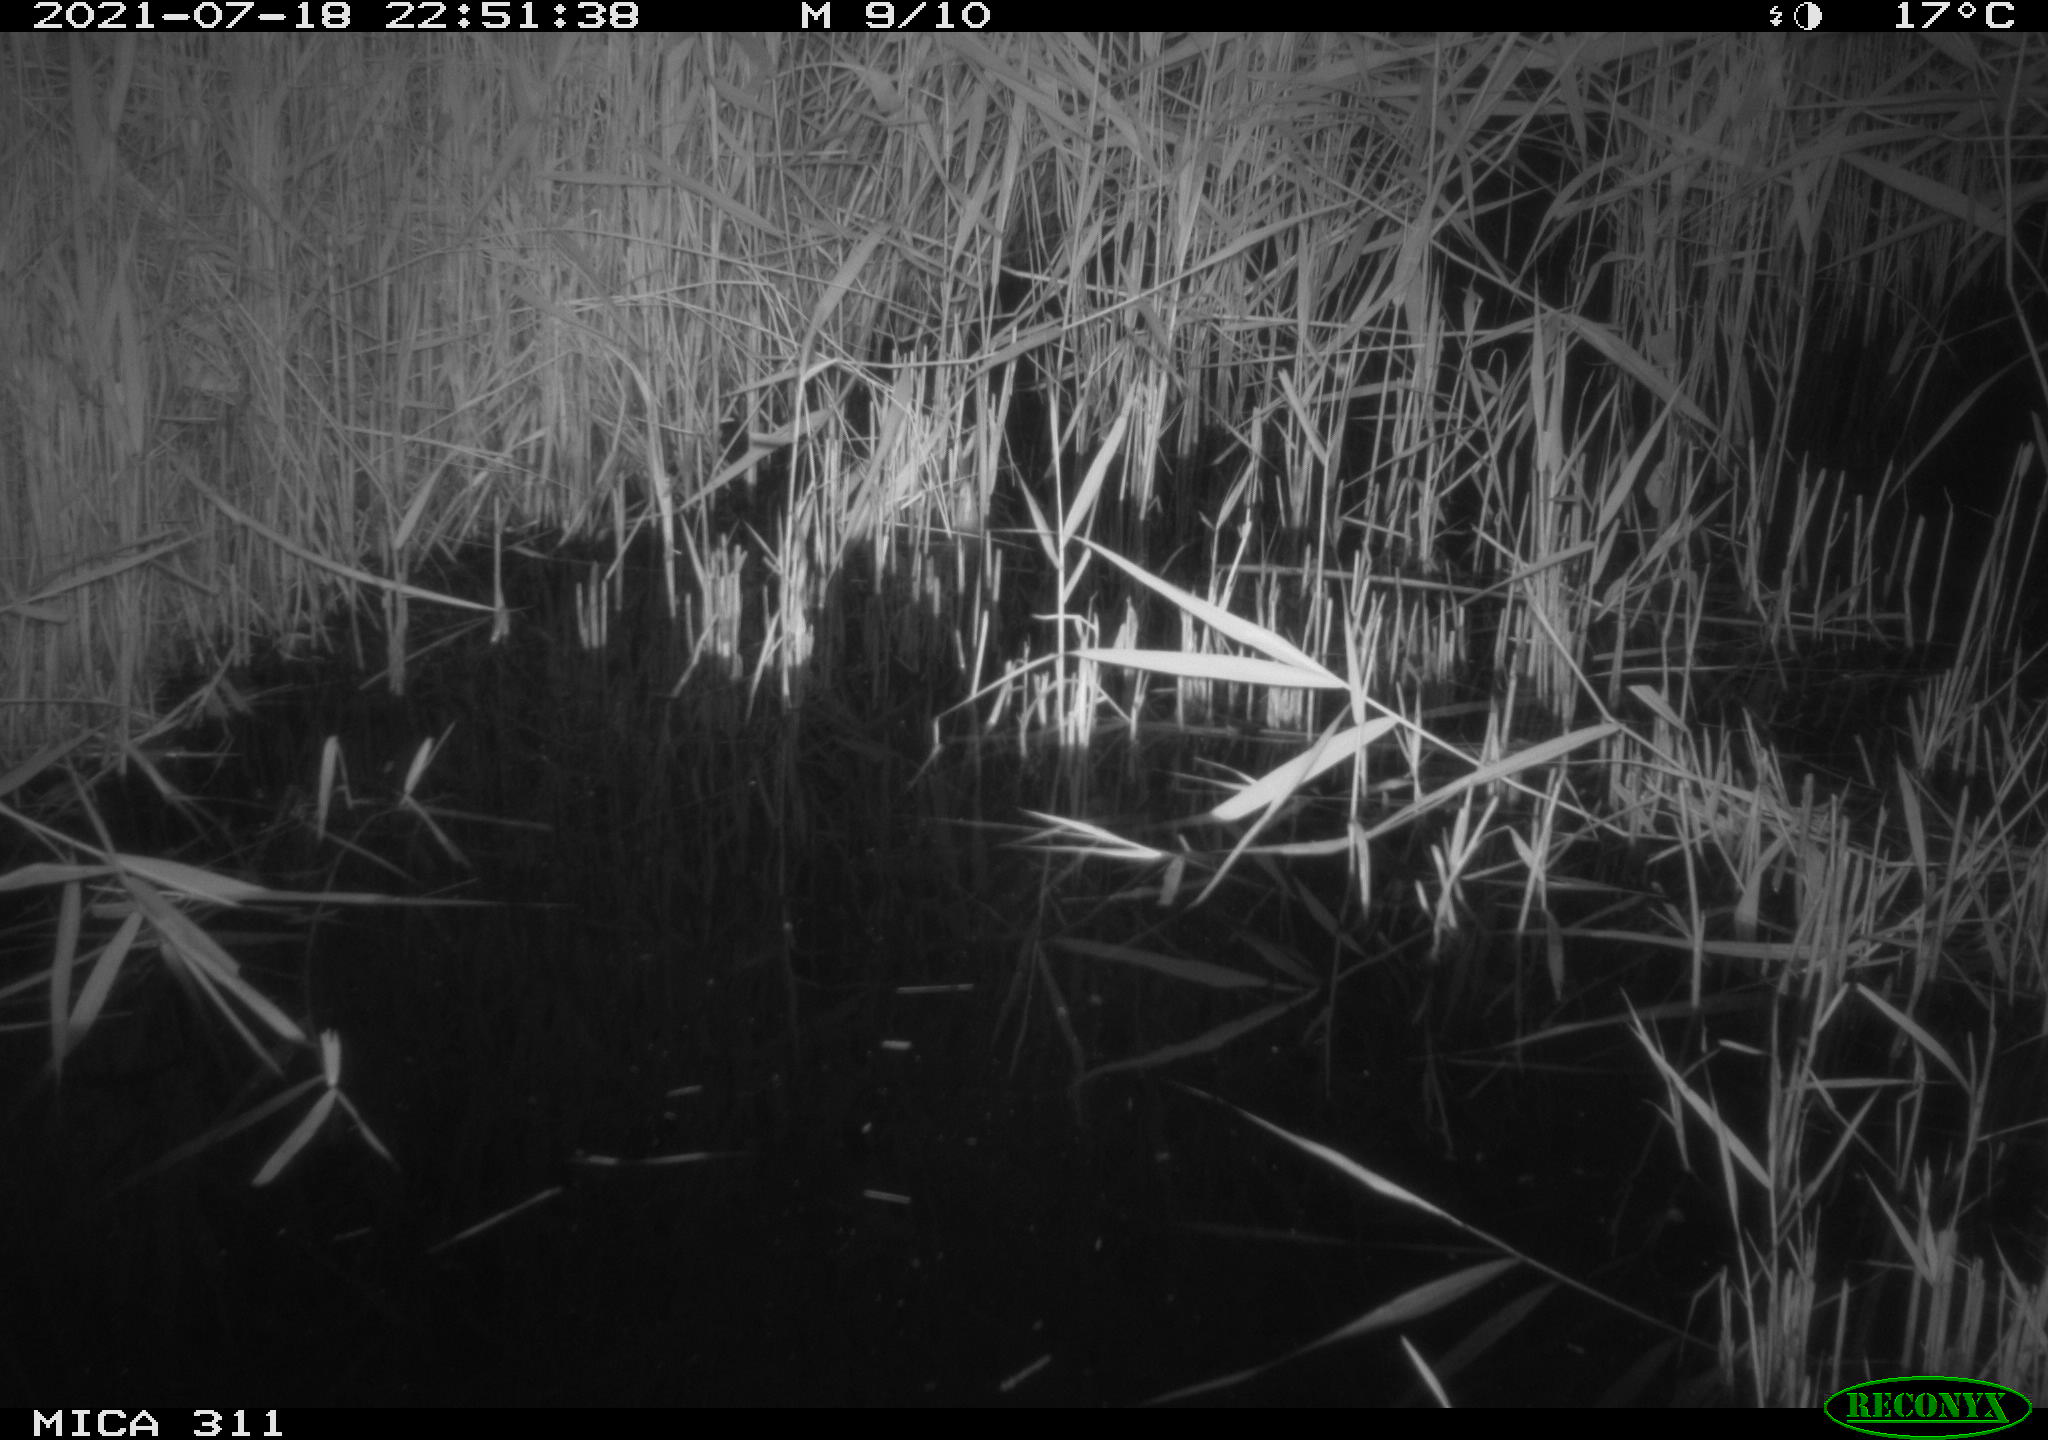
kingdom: Animalia
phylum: Chordata
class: Mammalia
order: Rodentia
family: Muridae
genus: Rattus
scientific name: Rattus norvegicus
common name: Brown rat
